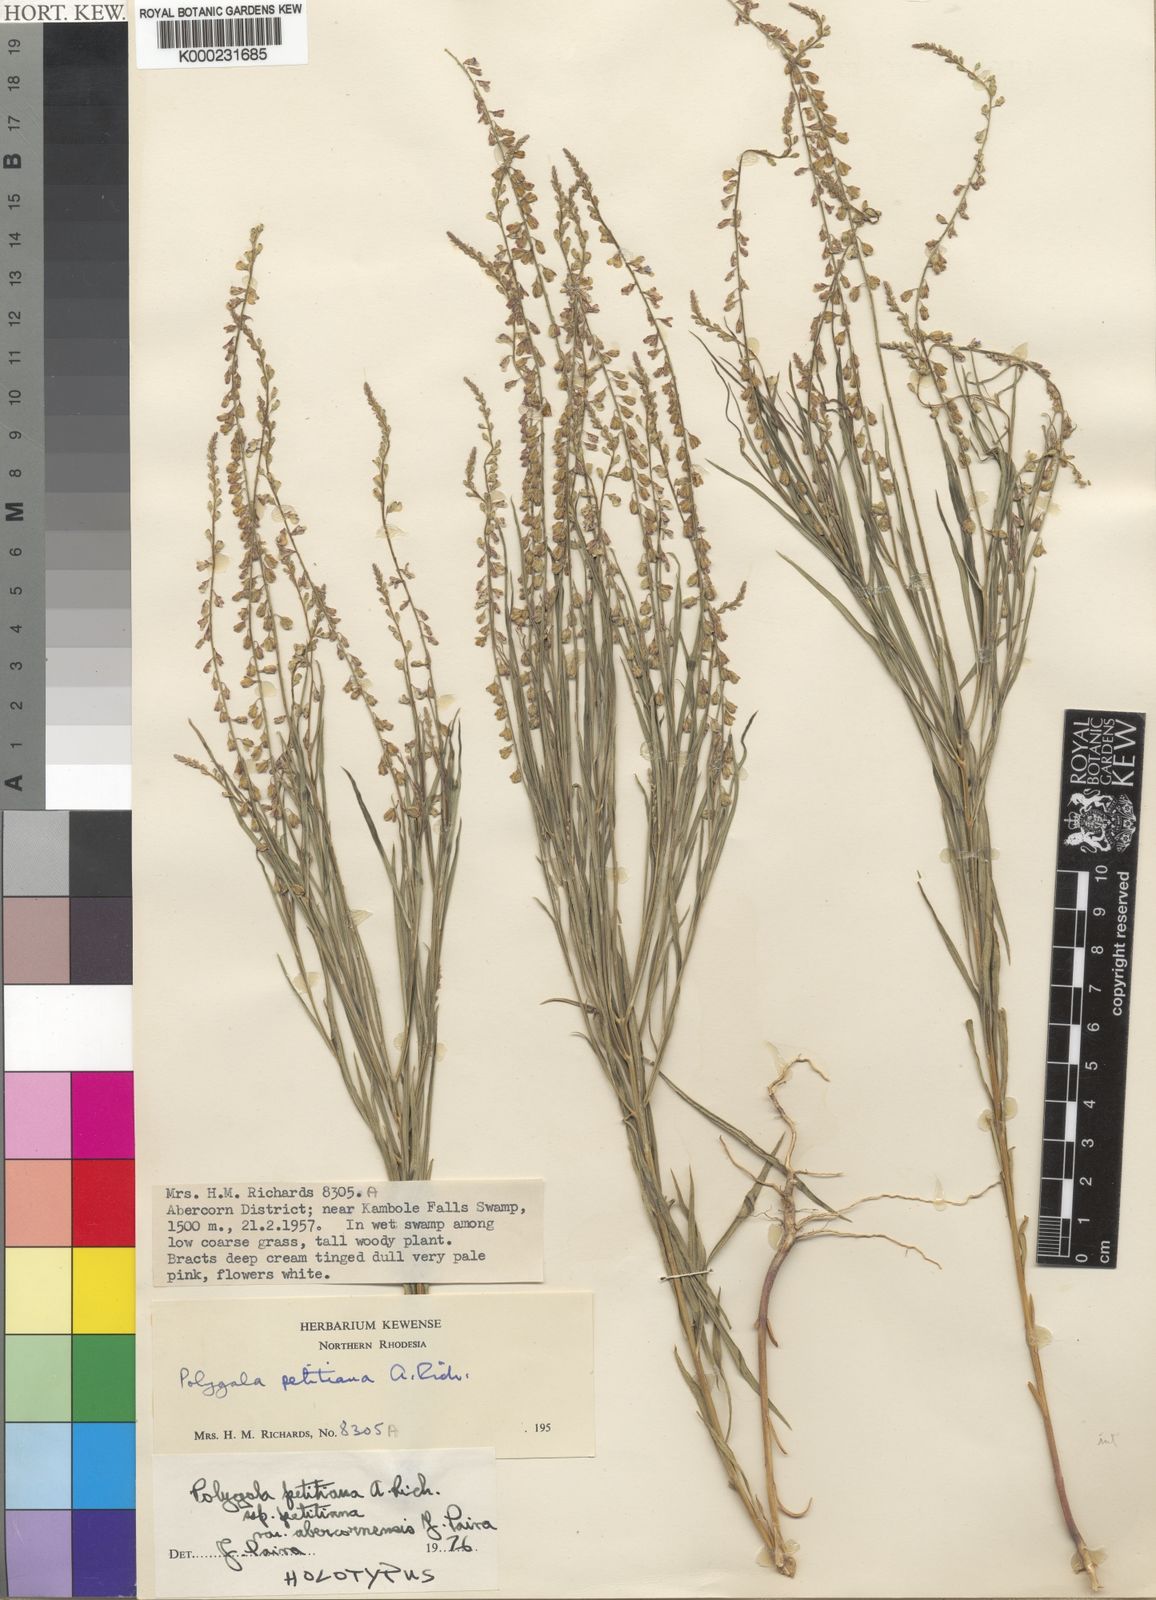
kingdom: Plantae
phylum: Tracheophyta
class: Magnoliopsida
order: Fabales
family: Polygalaceae
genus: Polygala
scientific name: Polygala petitiana
